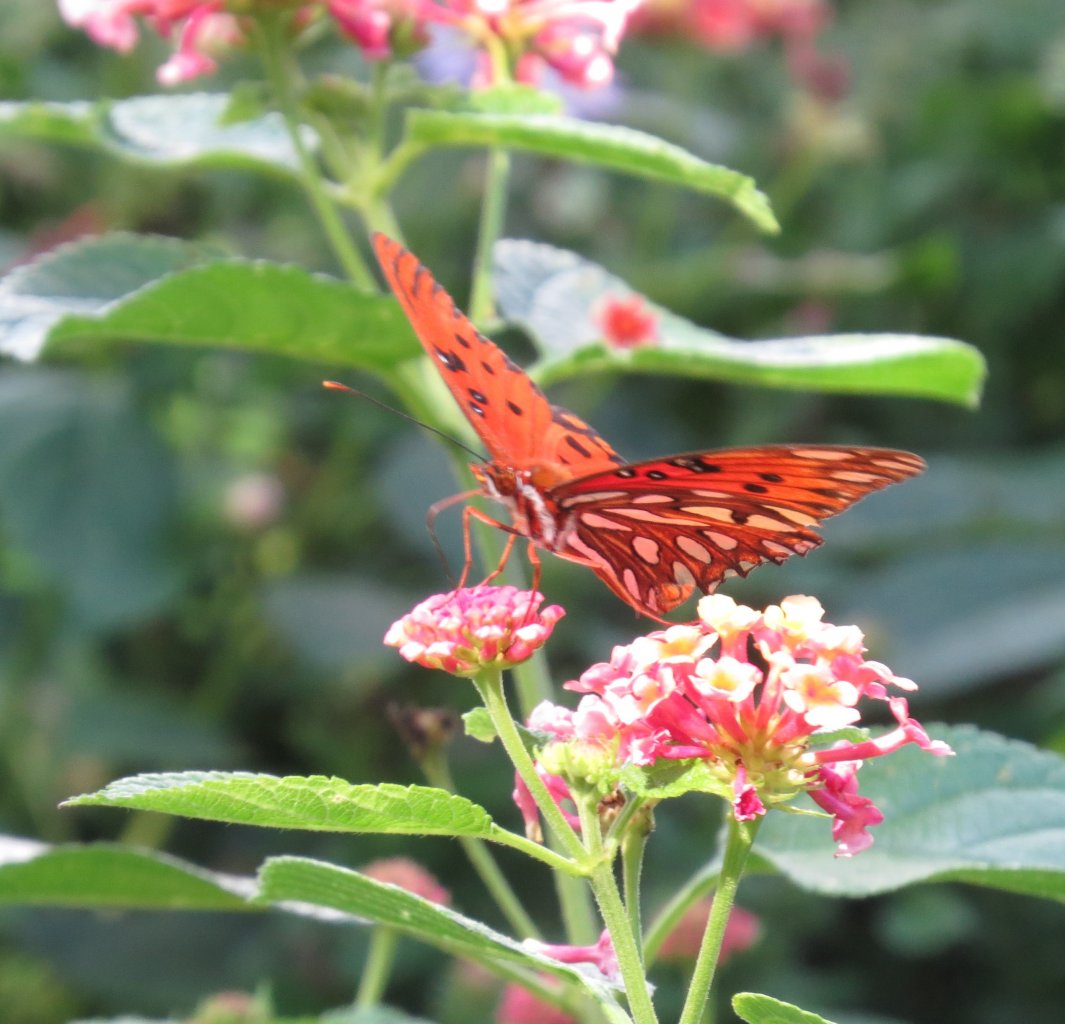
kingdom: Animalia
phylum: Arthropoda
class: Insecta
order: Lepidoptera
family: Nymphalidae
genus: Dione
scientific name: Dione vanillae
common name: Gulf Fritillary
